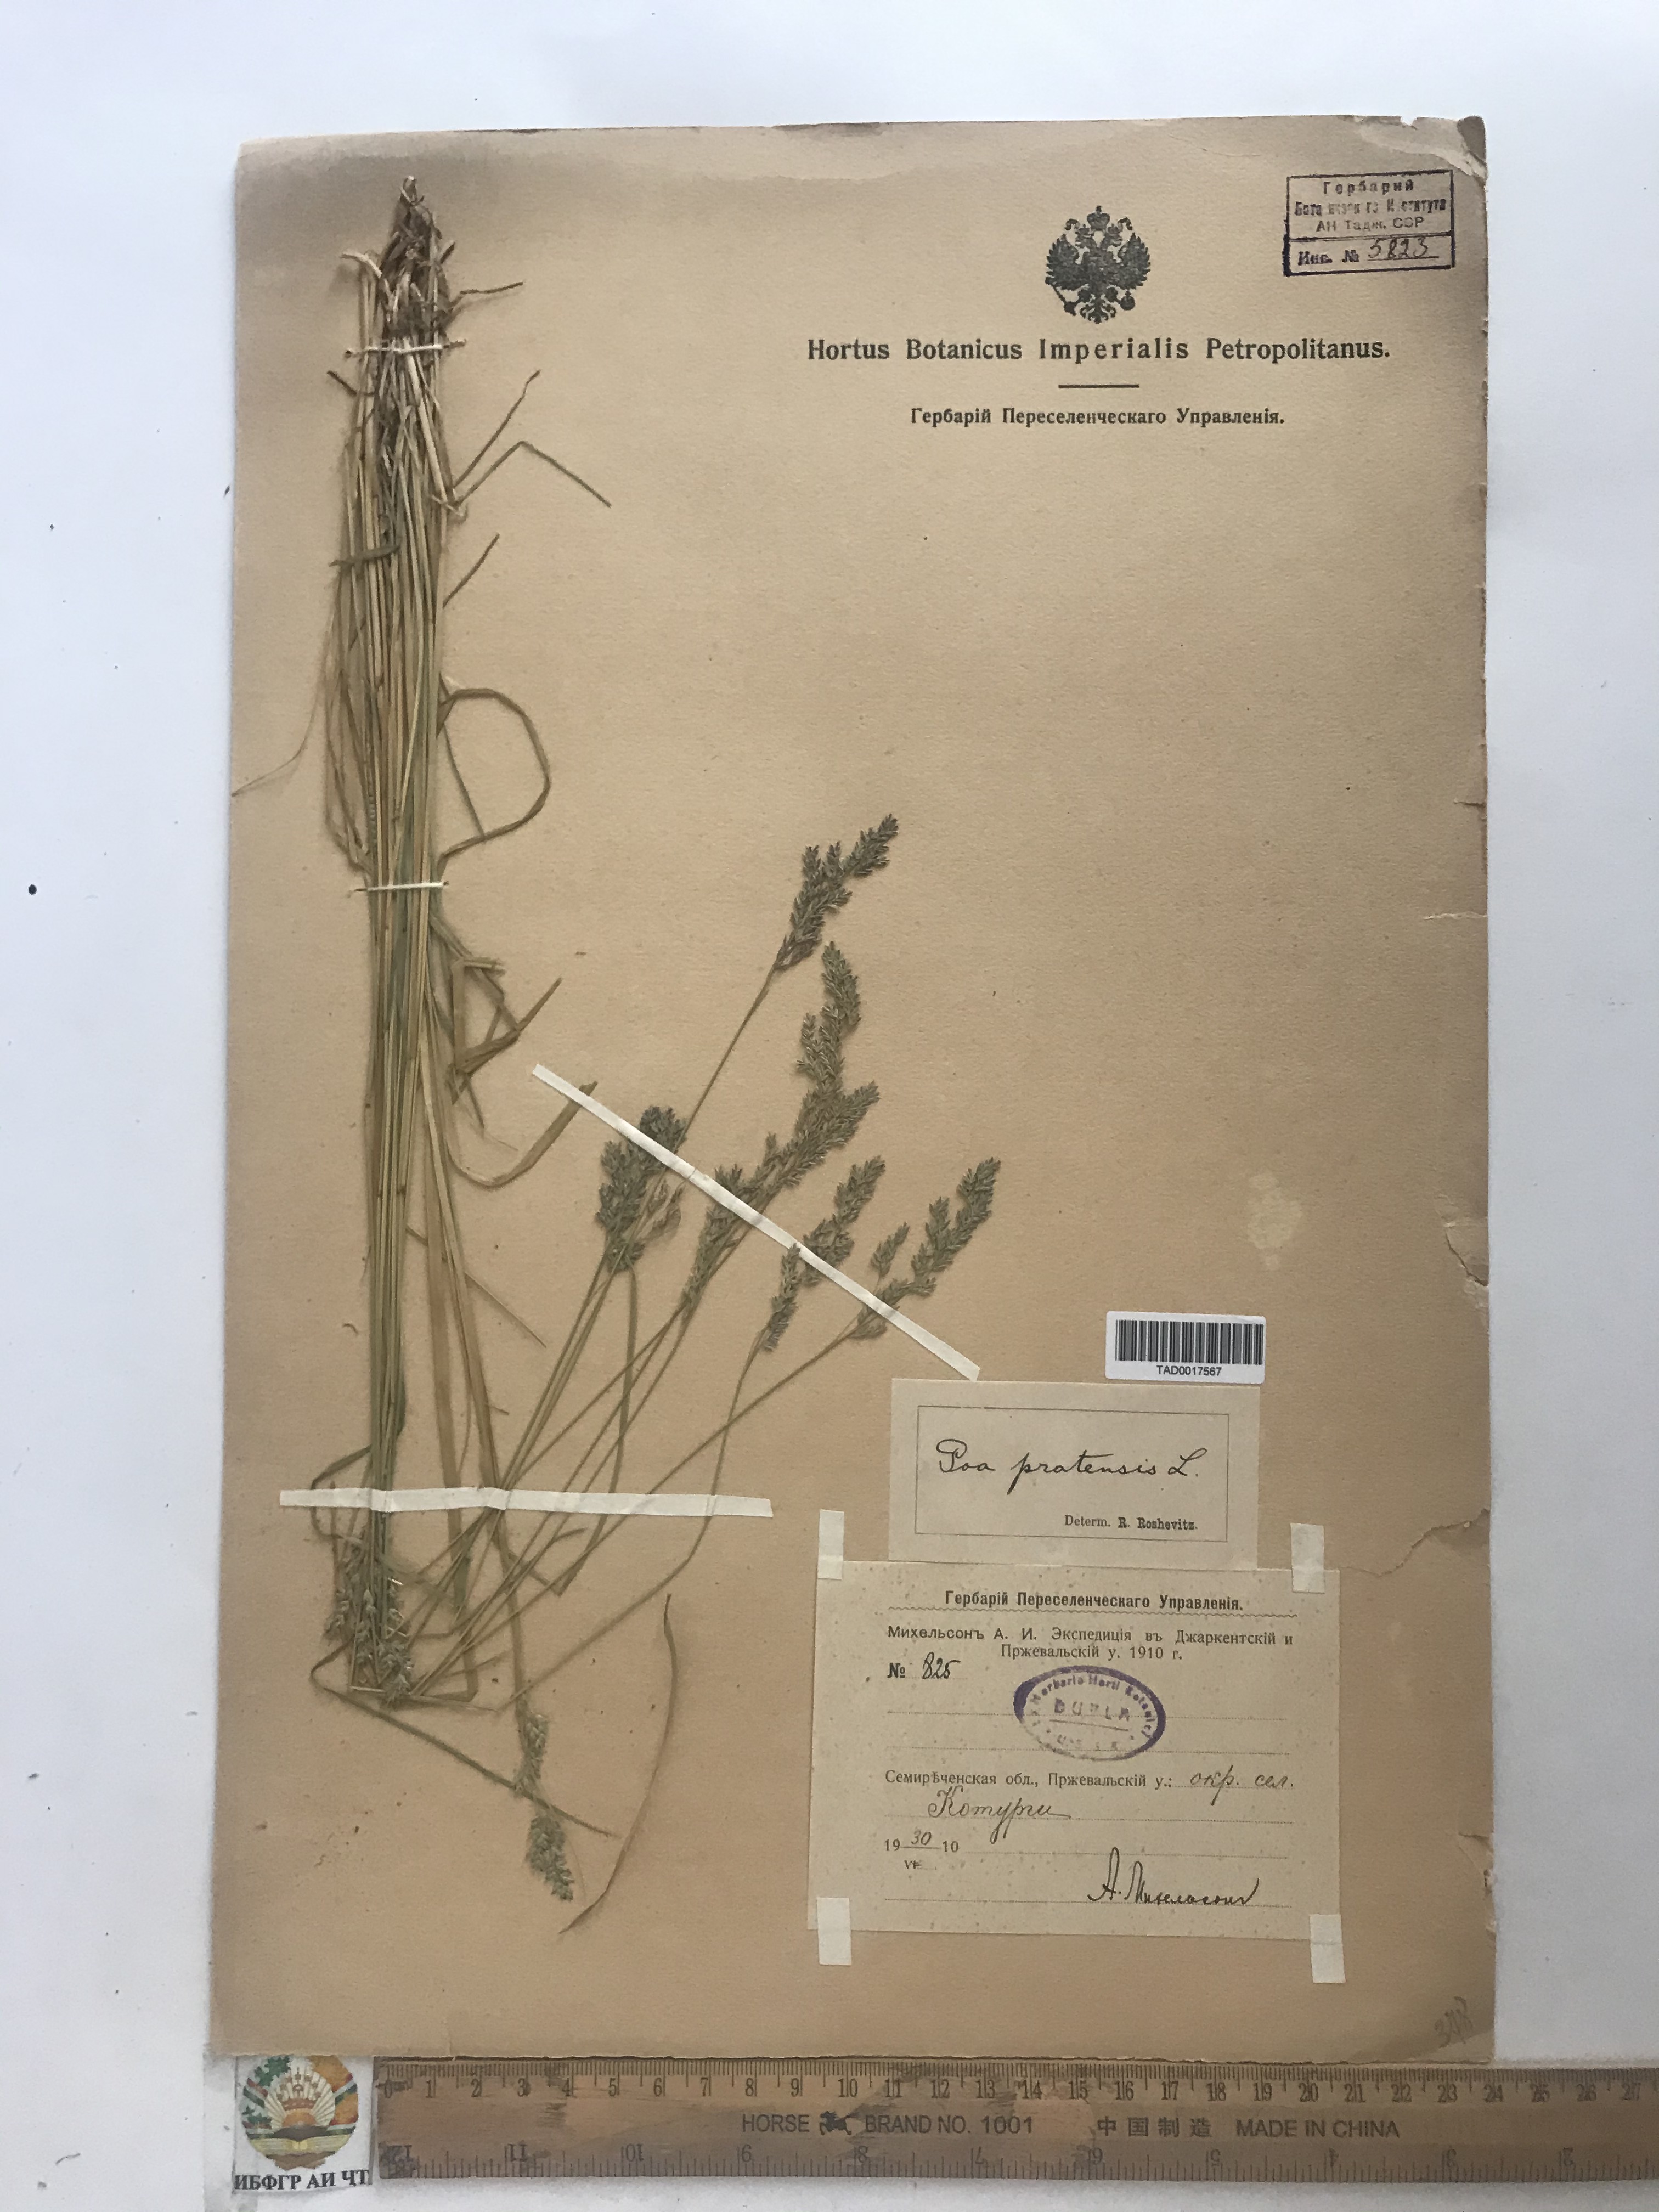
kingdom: Plantae
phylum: Tracheophyta
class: Liliopsida
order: Poales
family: Poaceae
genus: Poa
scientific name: Poa pratensis
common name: Kentucky bluegrass
